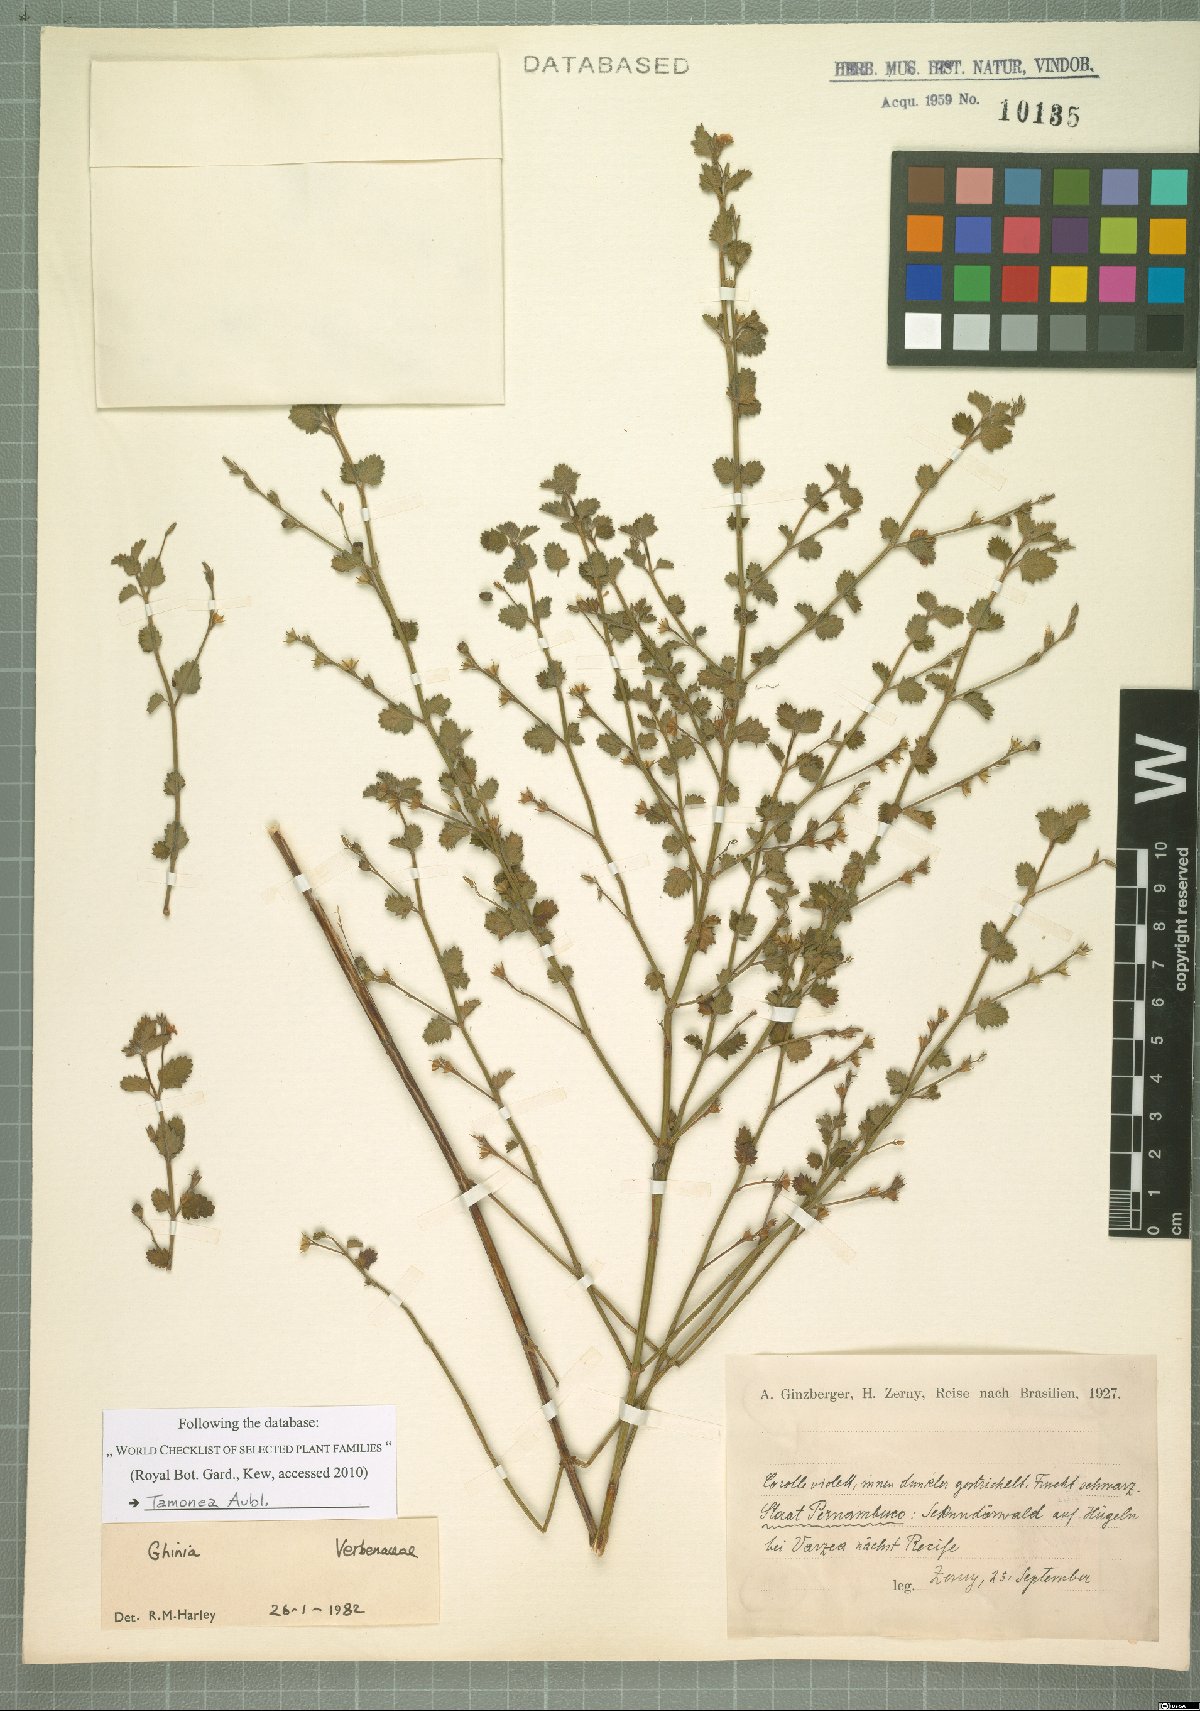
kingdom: Plantae
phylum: Tracheophyta
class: Magnoliopsida
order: Lamiales
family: Verbenaceae
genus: Tamonea
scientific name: Tamonea
